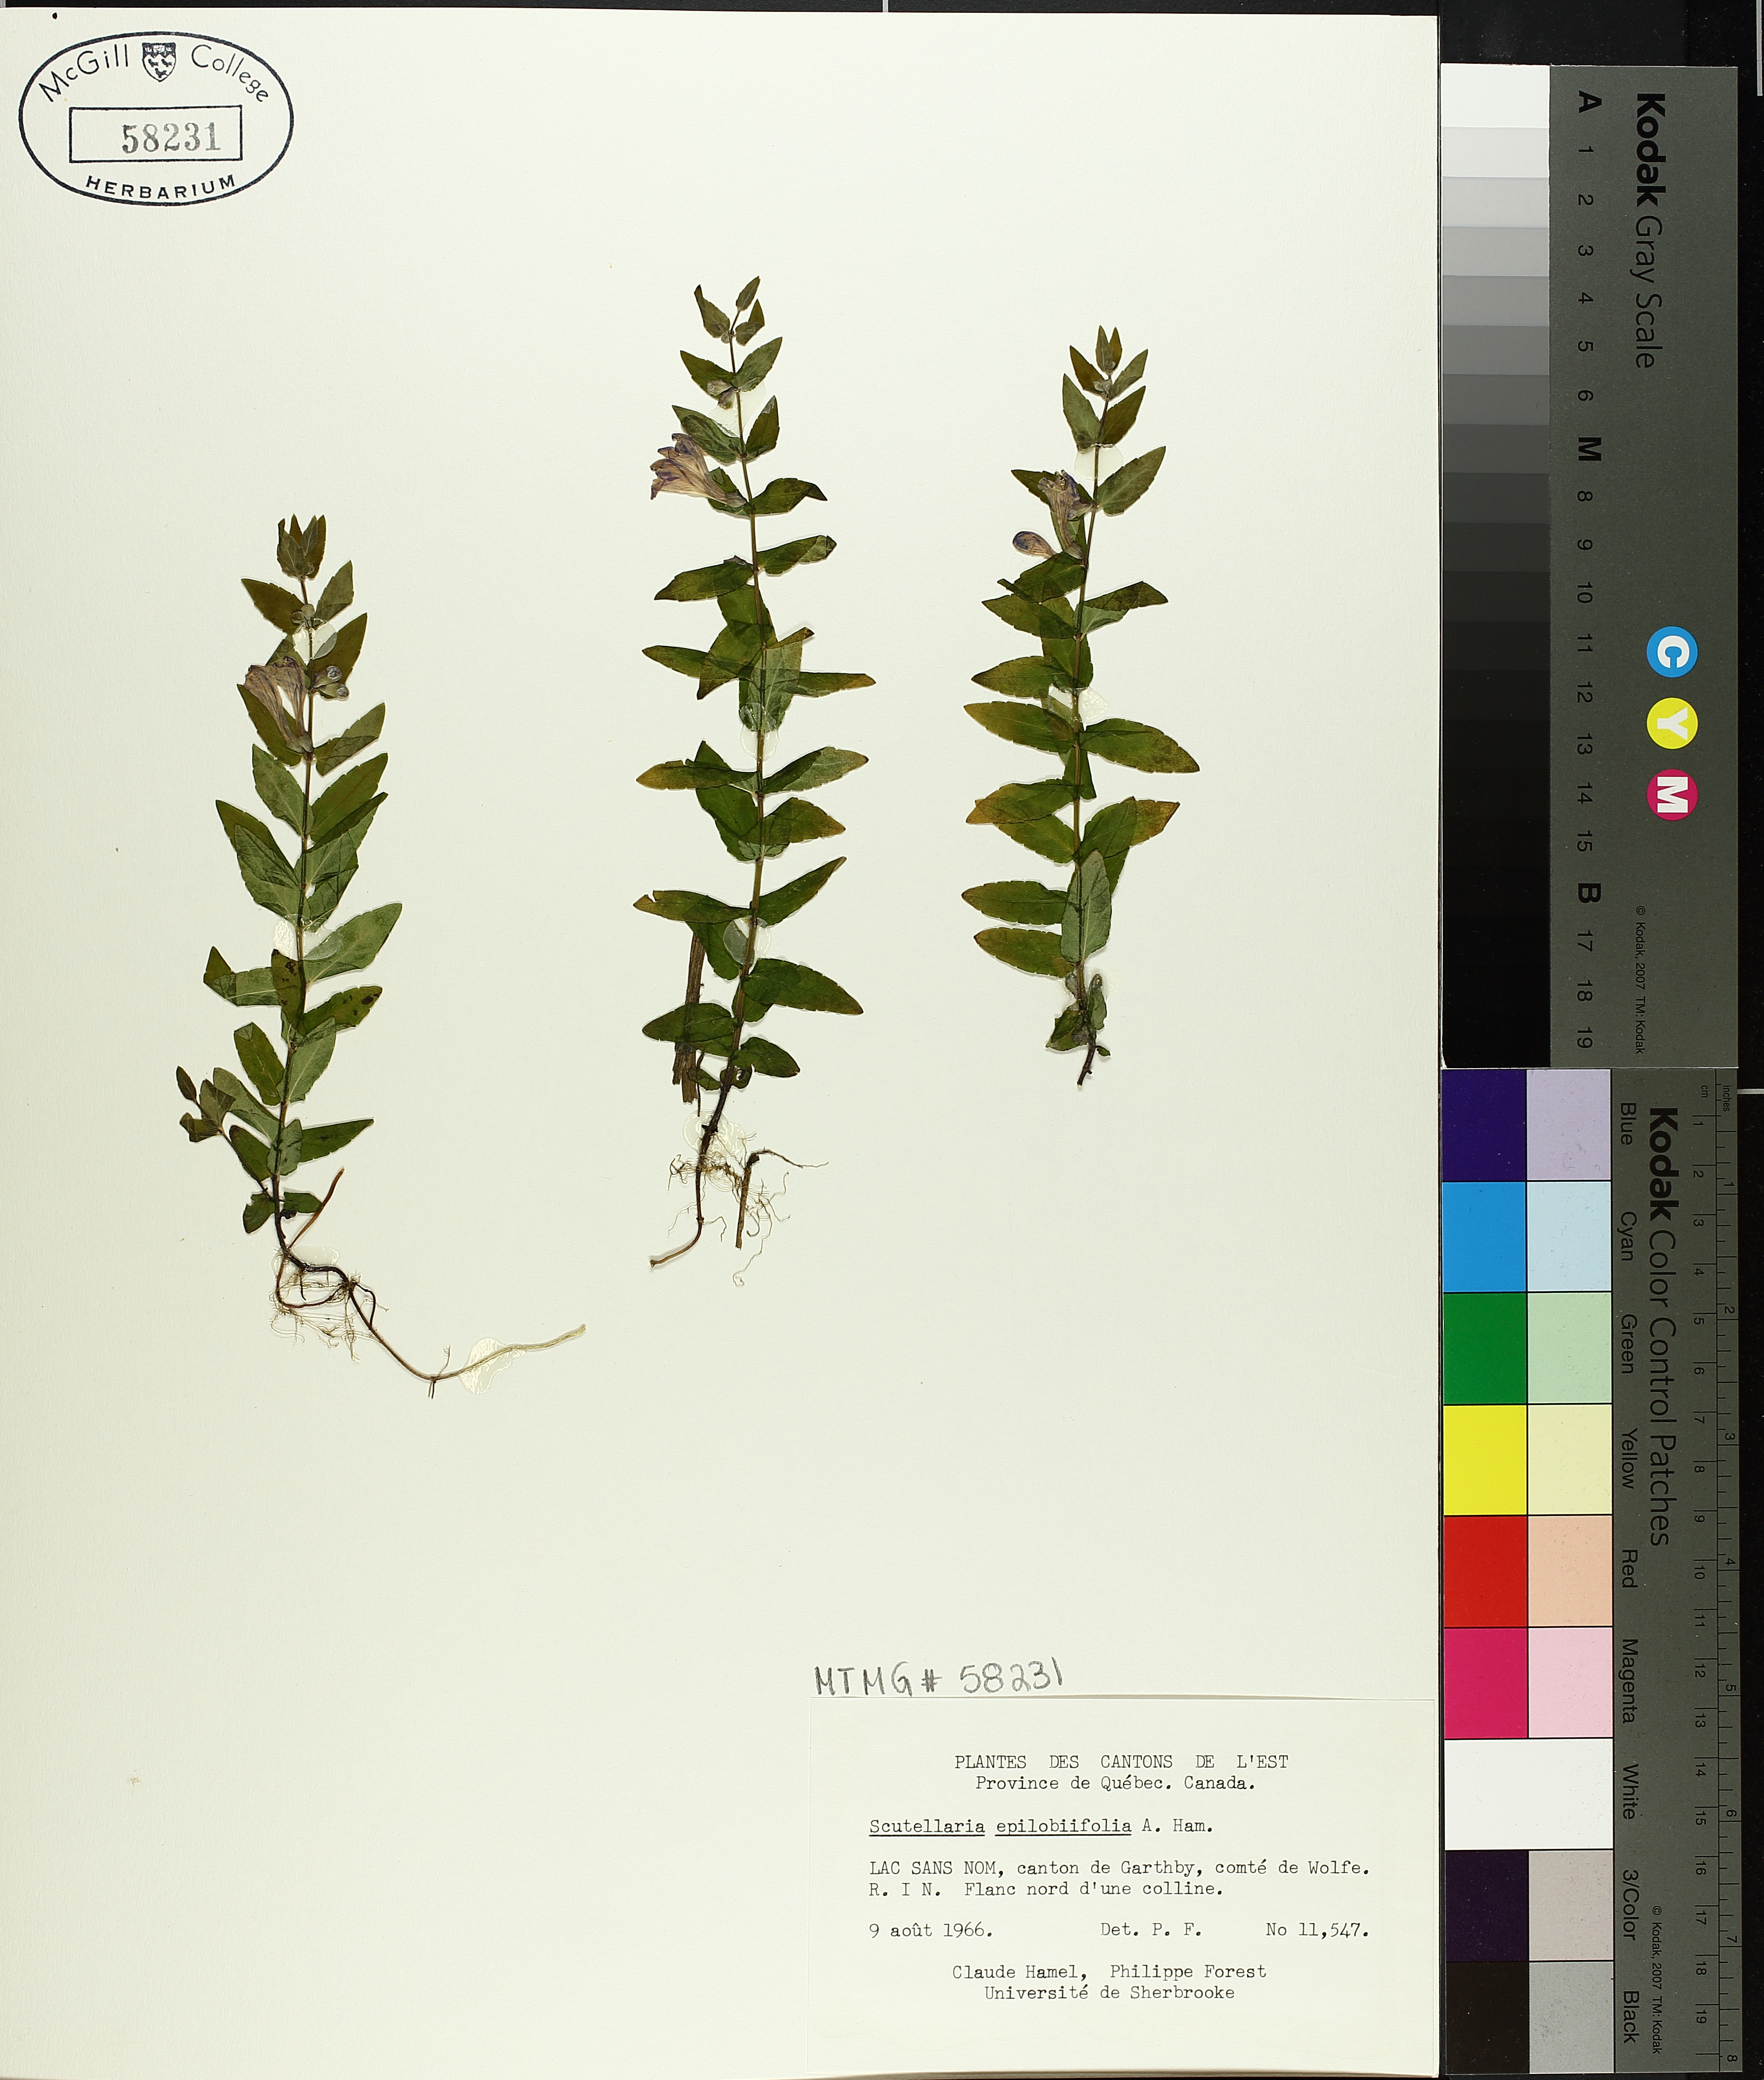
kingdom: Plantae
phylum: Tracheophyta
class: Magnoliopsida
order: Lamiales
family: Lamiaceae
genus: Scutellaria
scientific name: Scutellaria galericulata
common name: Skullcap
